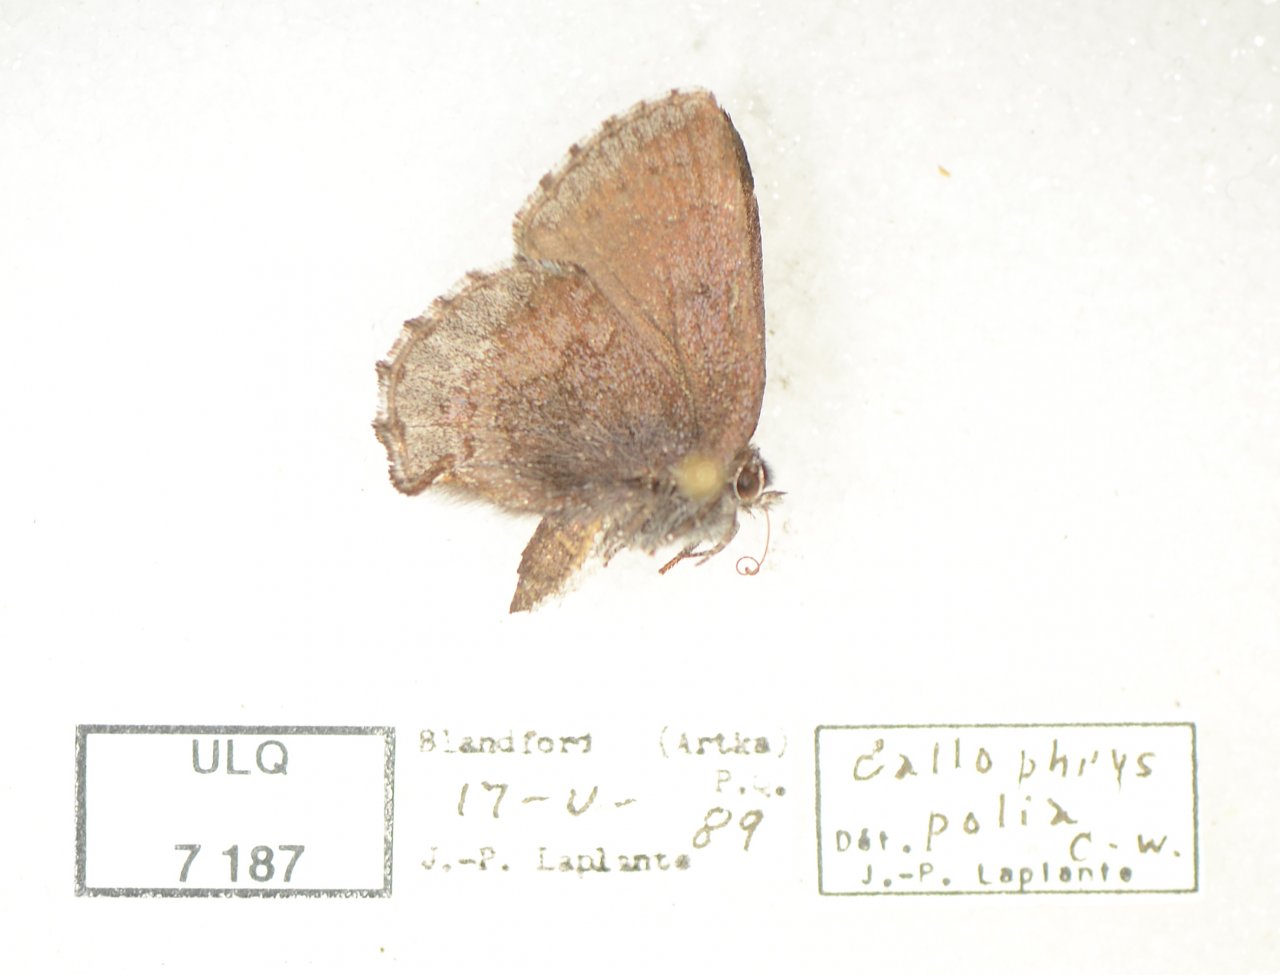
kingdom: Animalia
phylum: Arthropoda
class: Insecta
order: Lepidoptera
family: Lycaenidae
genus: Callophrys
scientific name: Callophrys polios
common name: Hoary Elfin
